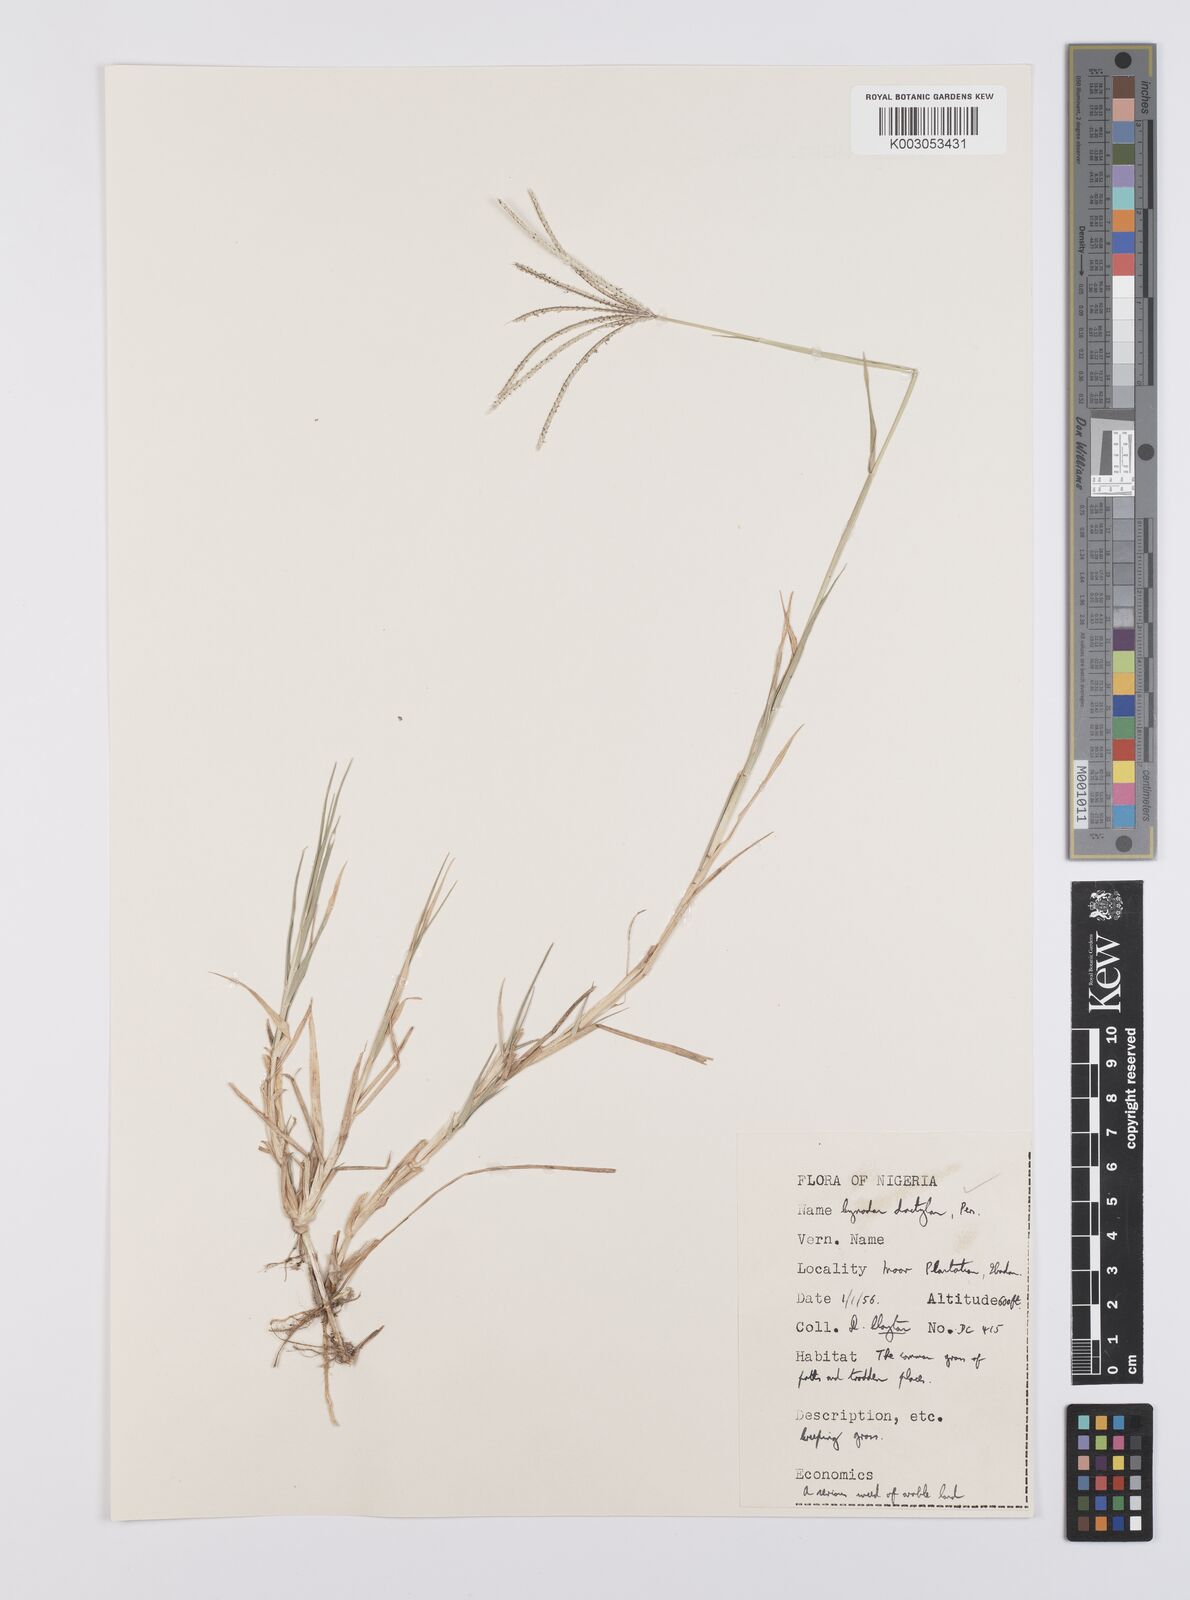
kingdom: Plantae
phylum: Tracheophyta
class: Liliopsida
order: Poales
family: Poaceae
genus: Cynodon
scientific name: Cynodon dactylon
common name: Bermuda grass
